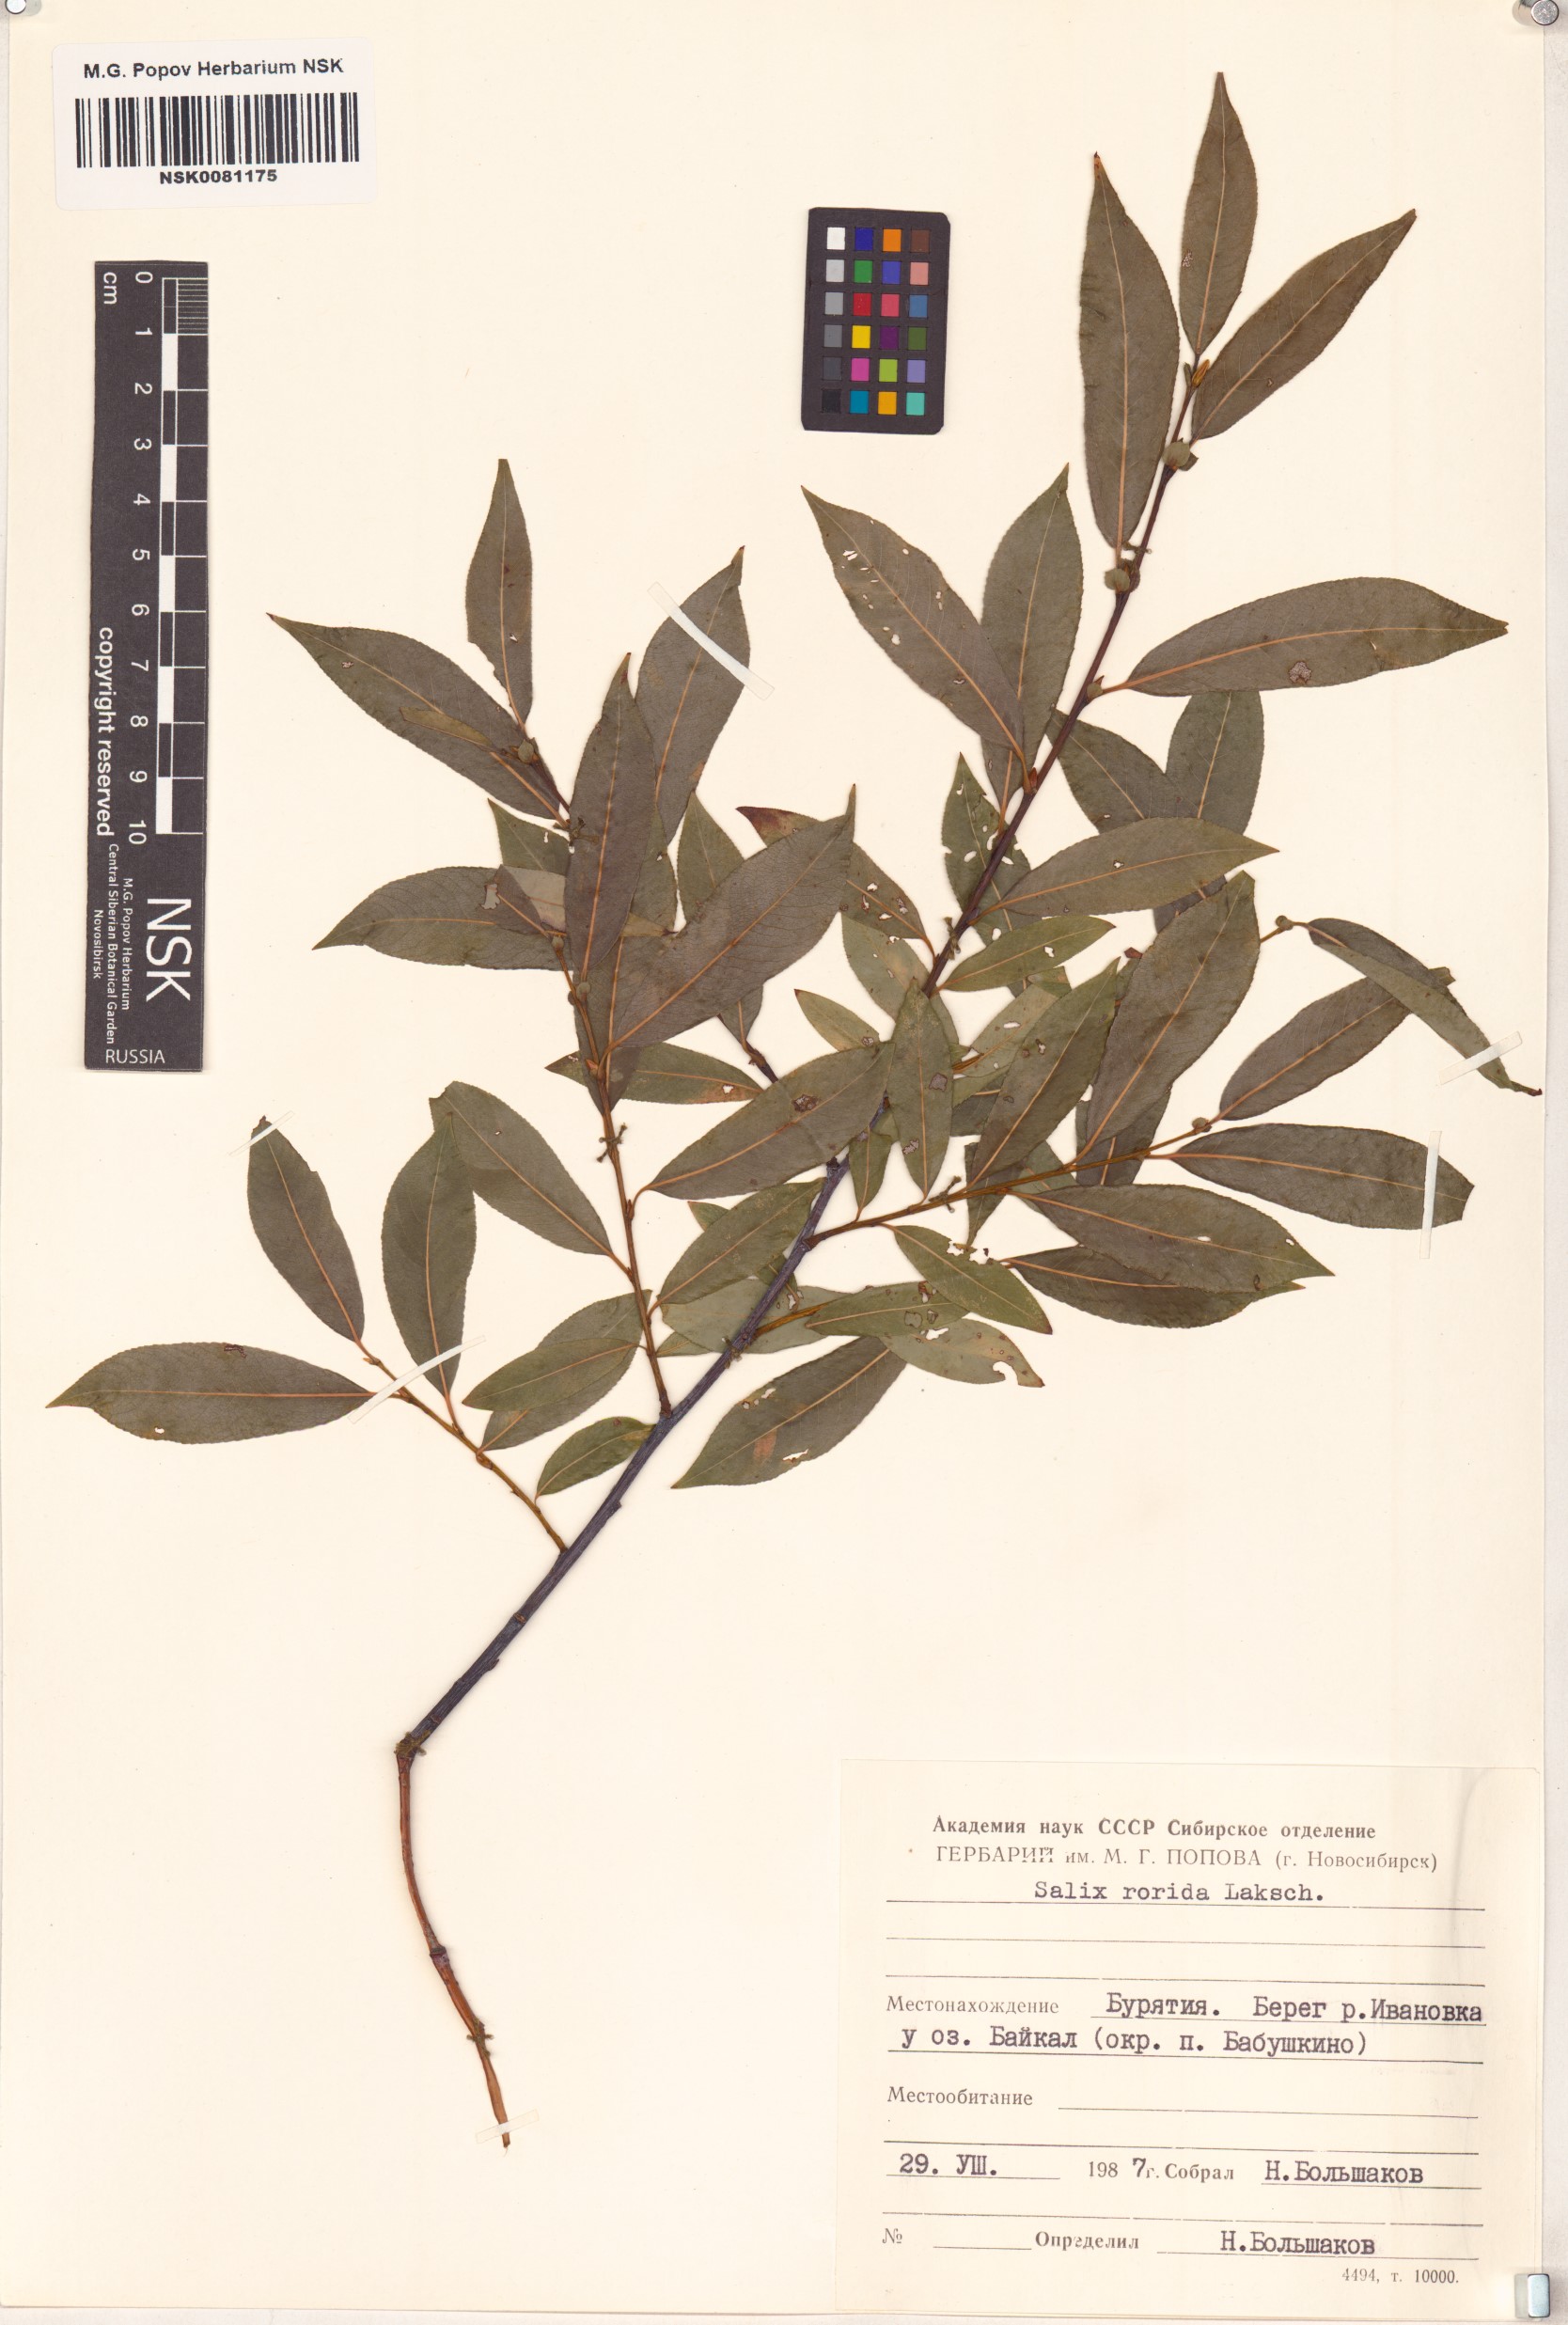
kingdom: Plantae
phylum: Tracheophyta
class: Magnoliopsida
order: Malpighiales
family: Salicaceae
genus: Salix
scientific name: Salix rorida
